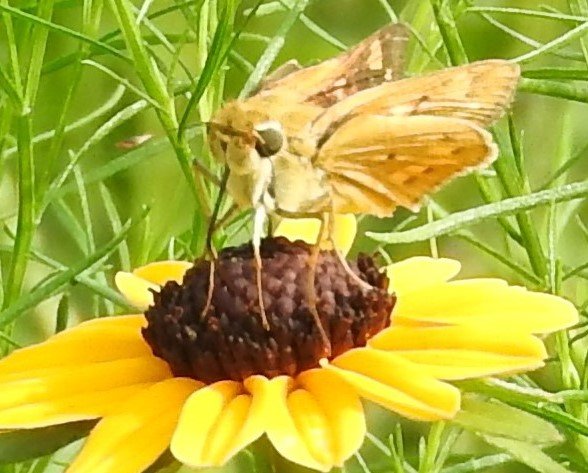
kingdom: Animalia
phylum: Arthropoda
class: Insecta
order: Lepidoptera
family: Hesperiidae
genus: Hylephila
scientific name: Hylephila phyleus
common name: Fiery Skipper
